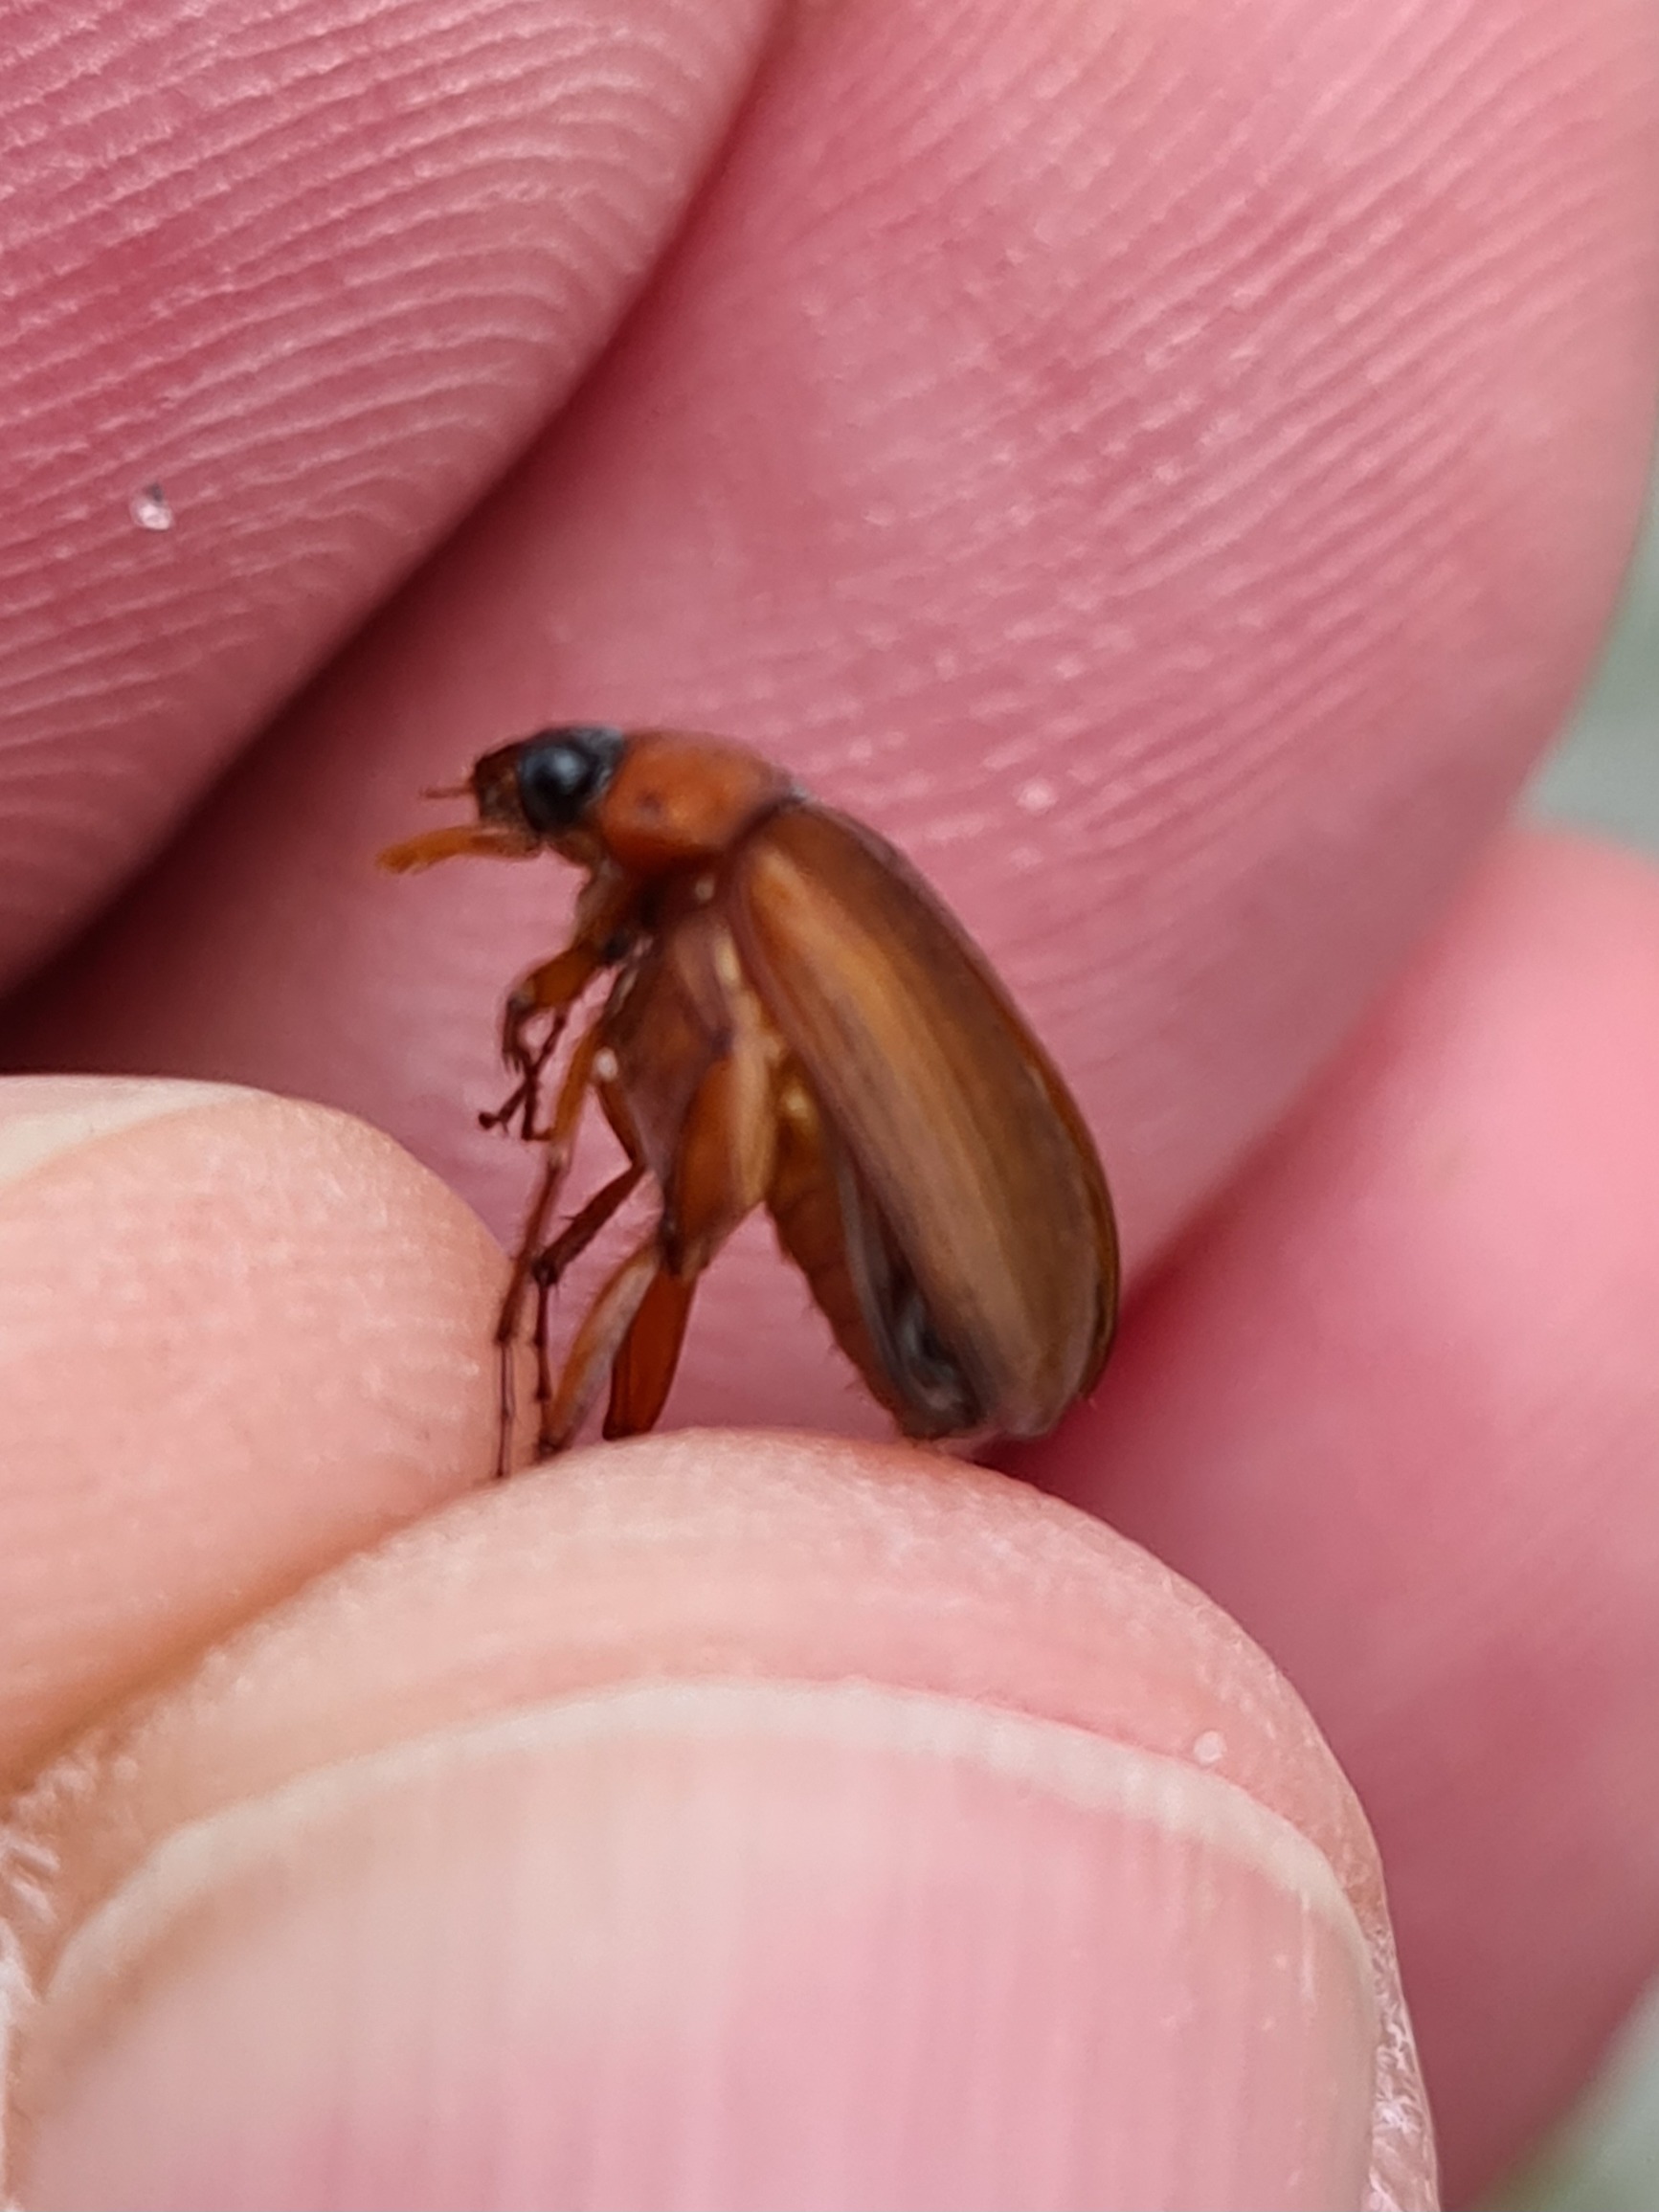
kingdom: Animalia
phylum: Arthropoda
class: Insecta
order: Coleoptera
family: Scarabaeidae
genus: Serica
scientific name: Serica brunnea
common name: Natoldenborre
